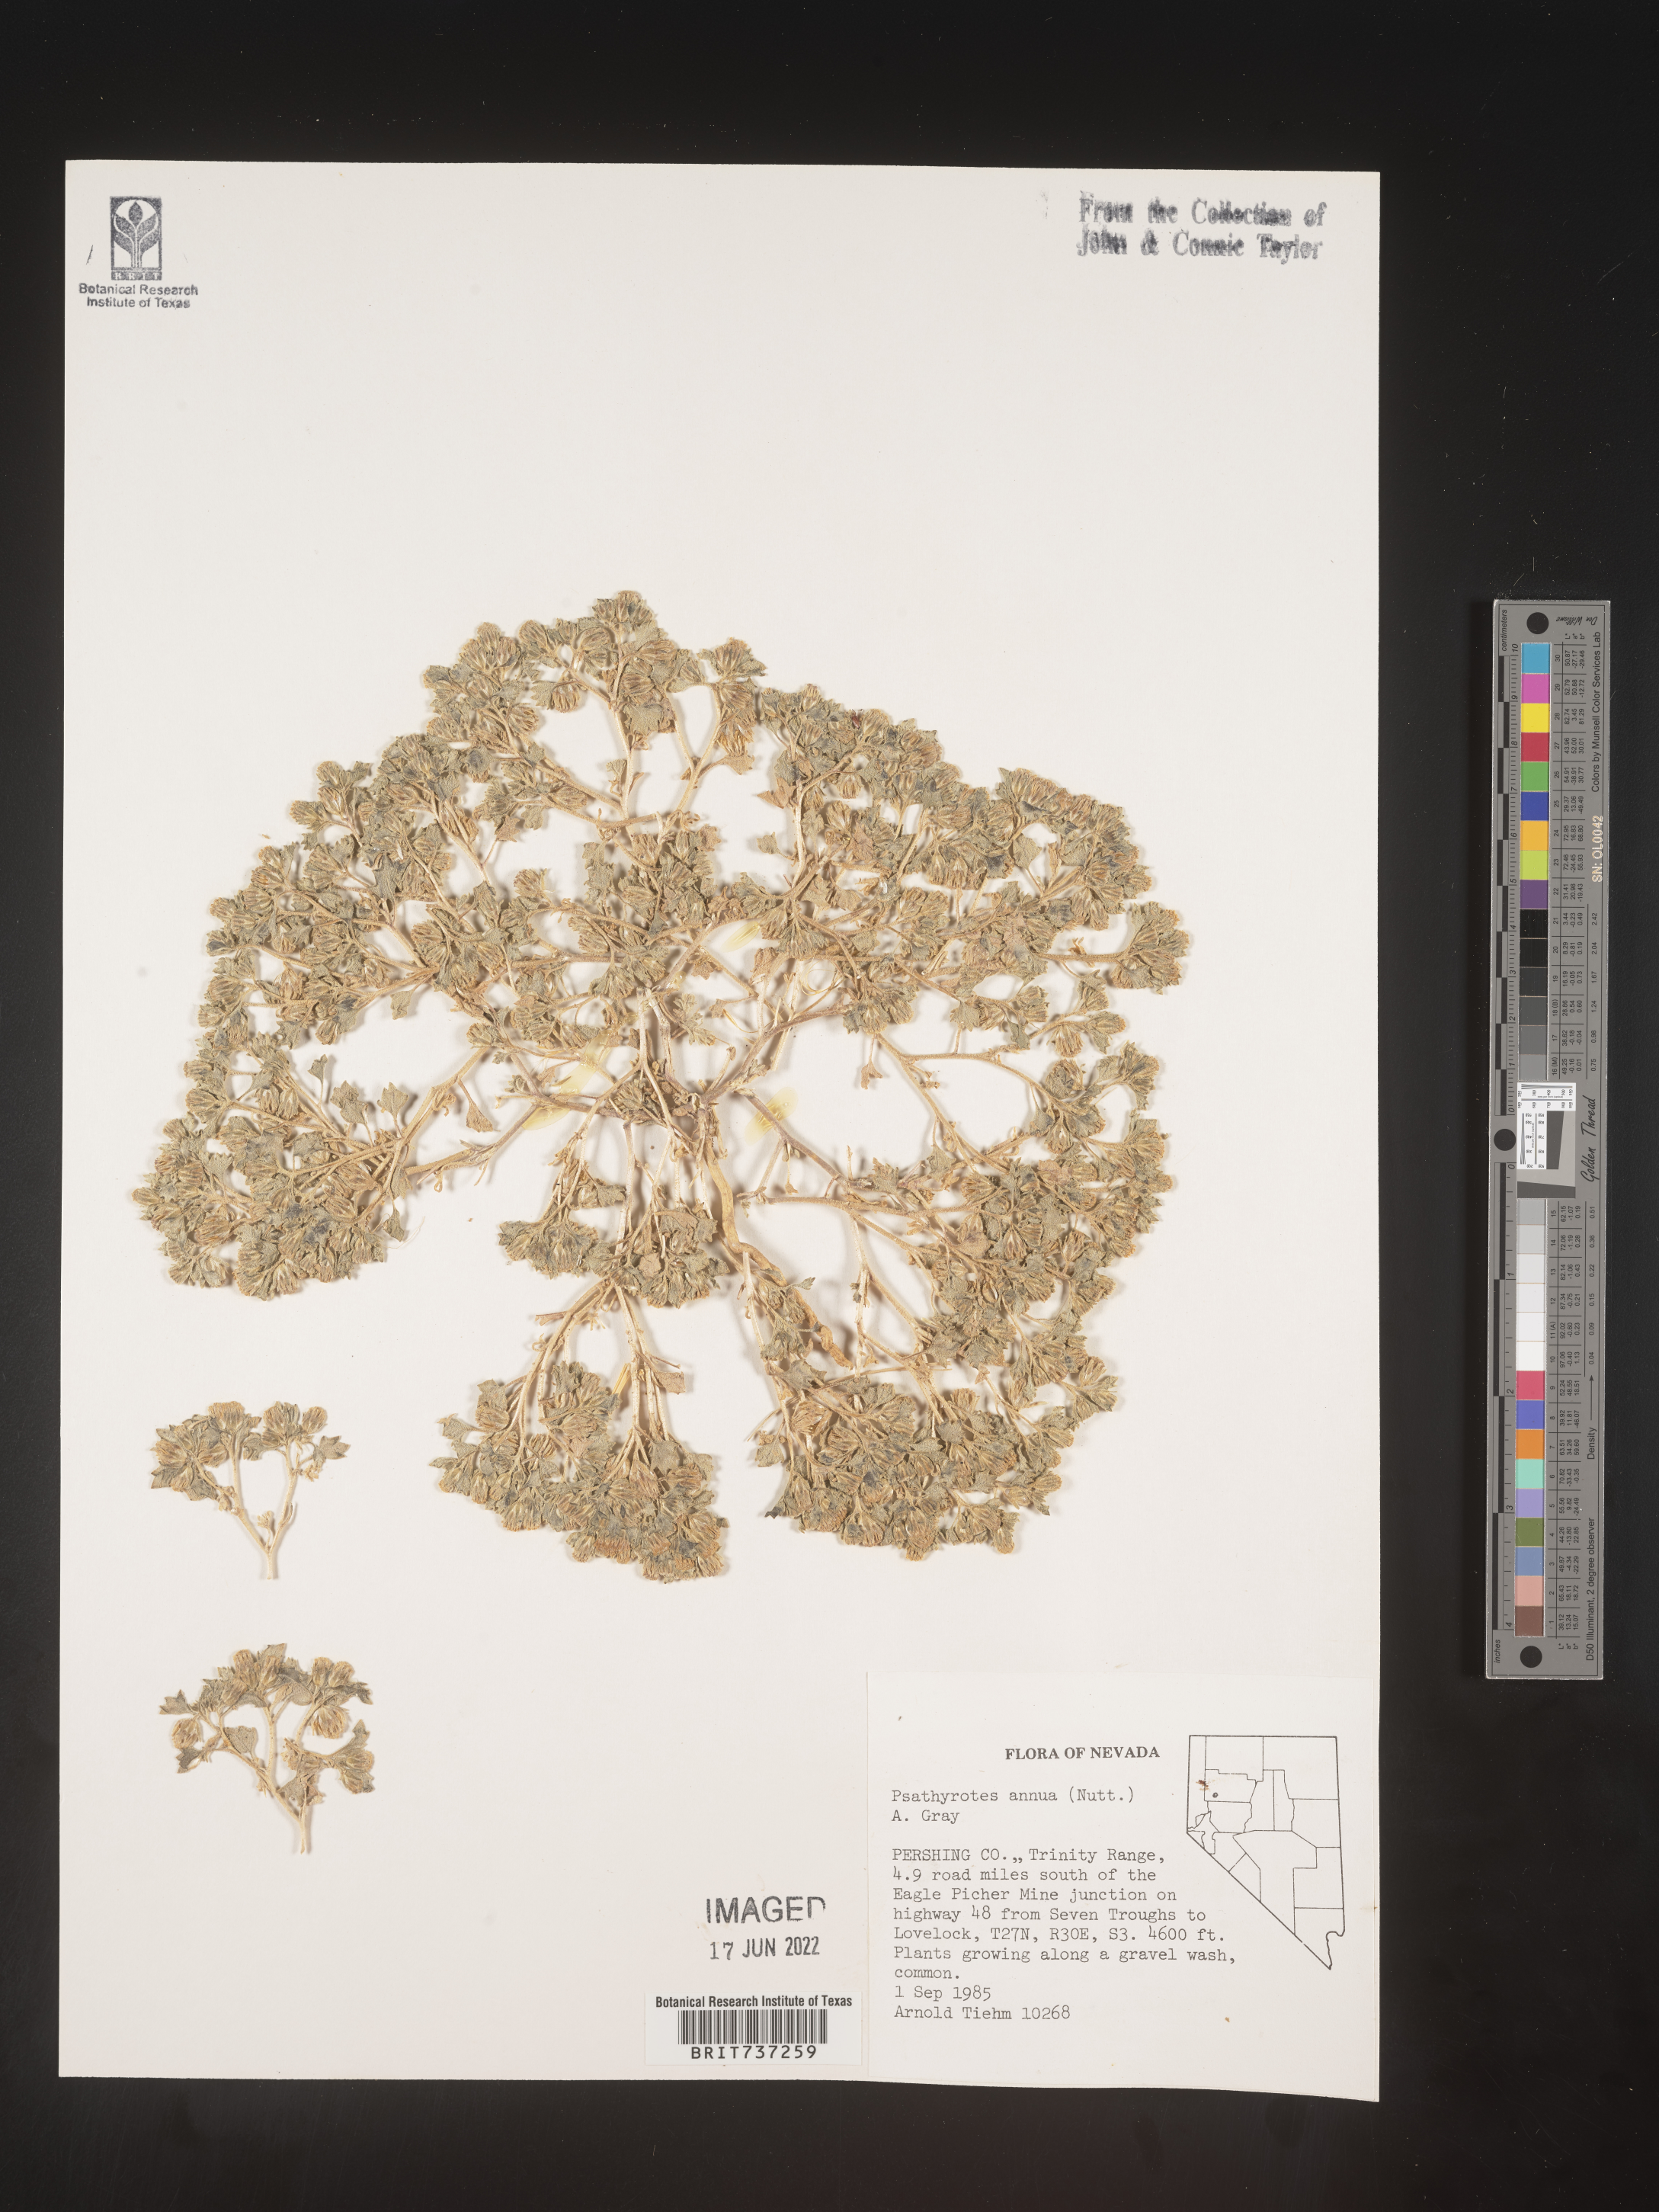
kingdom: Plantae
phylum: Tracheophyta
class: Magnoliopsida
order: Asterales
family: Asteraceae
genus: Psathyrotes
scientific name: Psathyrotes
